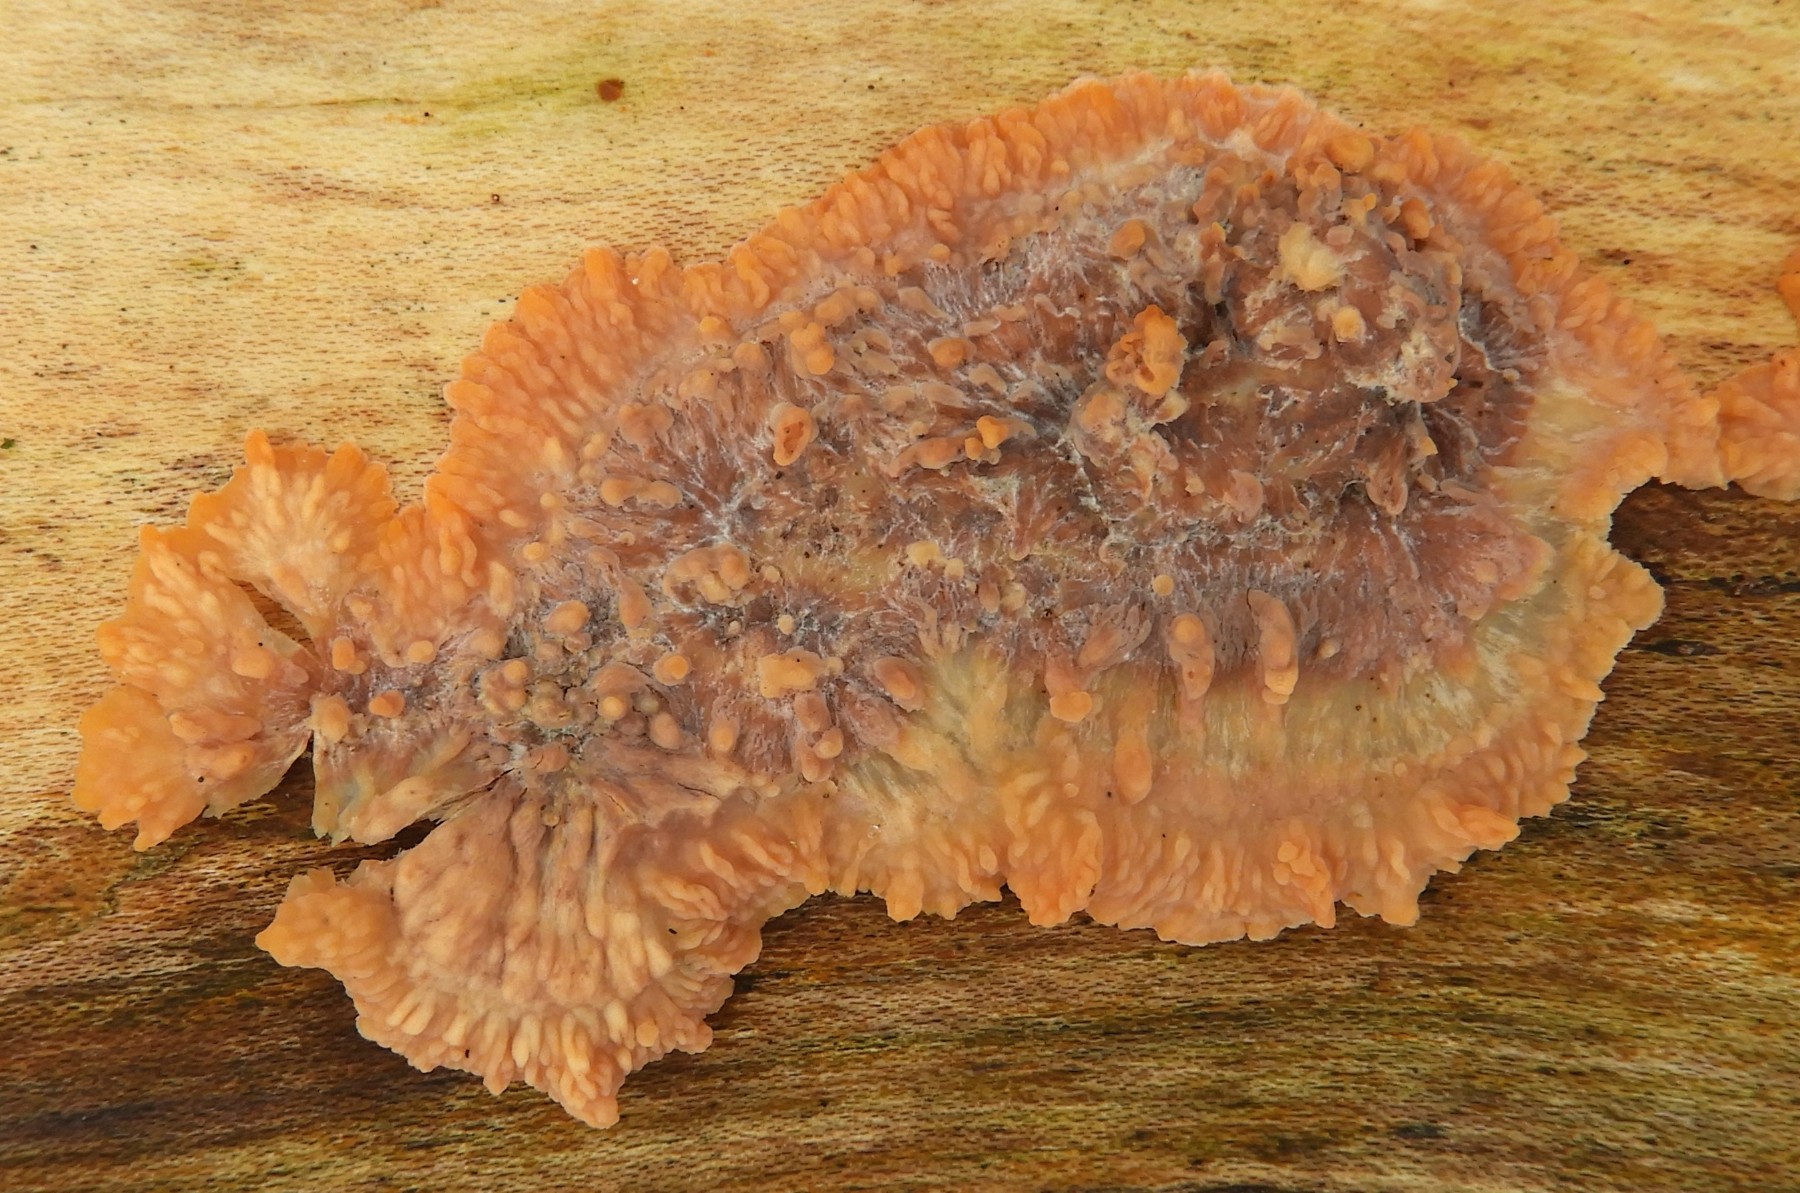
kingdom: Fungi
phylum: Basidiomycota
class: Agaricomycetes
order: Polyporales
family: Meruliaceae
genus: Phlebia
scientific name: Phlebia radiata
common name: stråle-åresvamp
